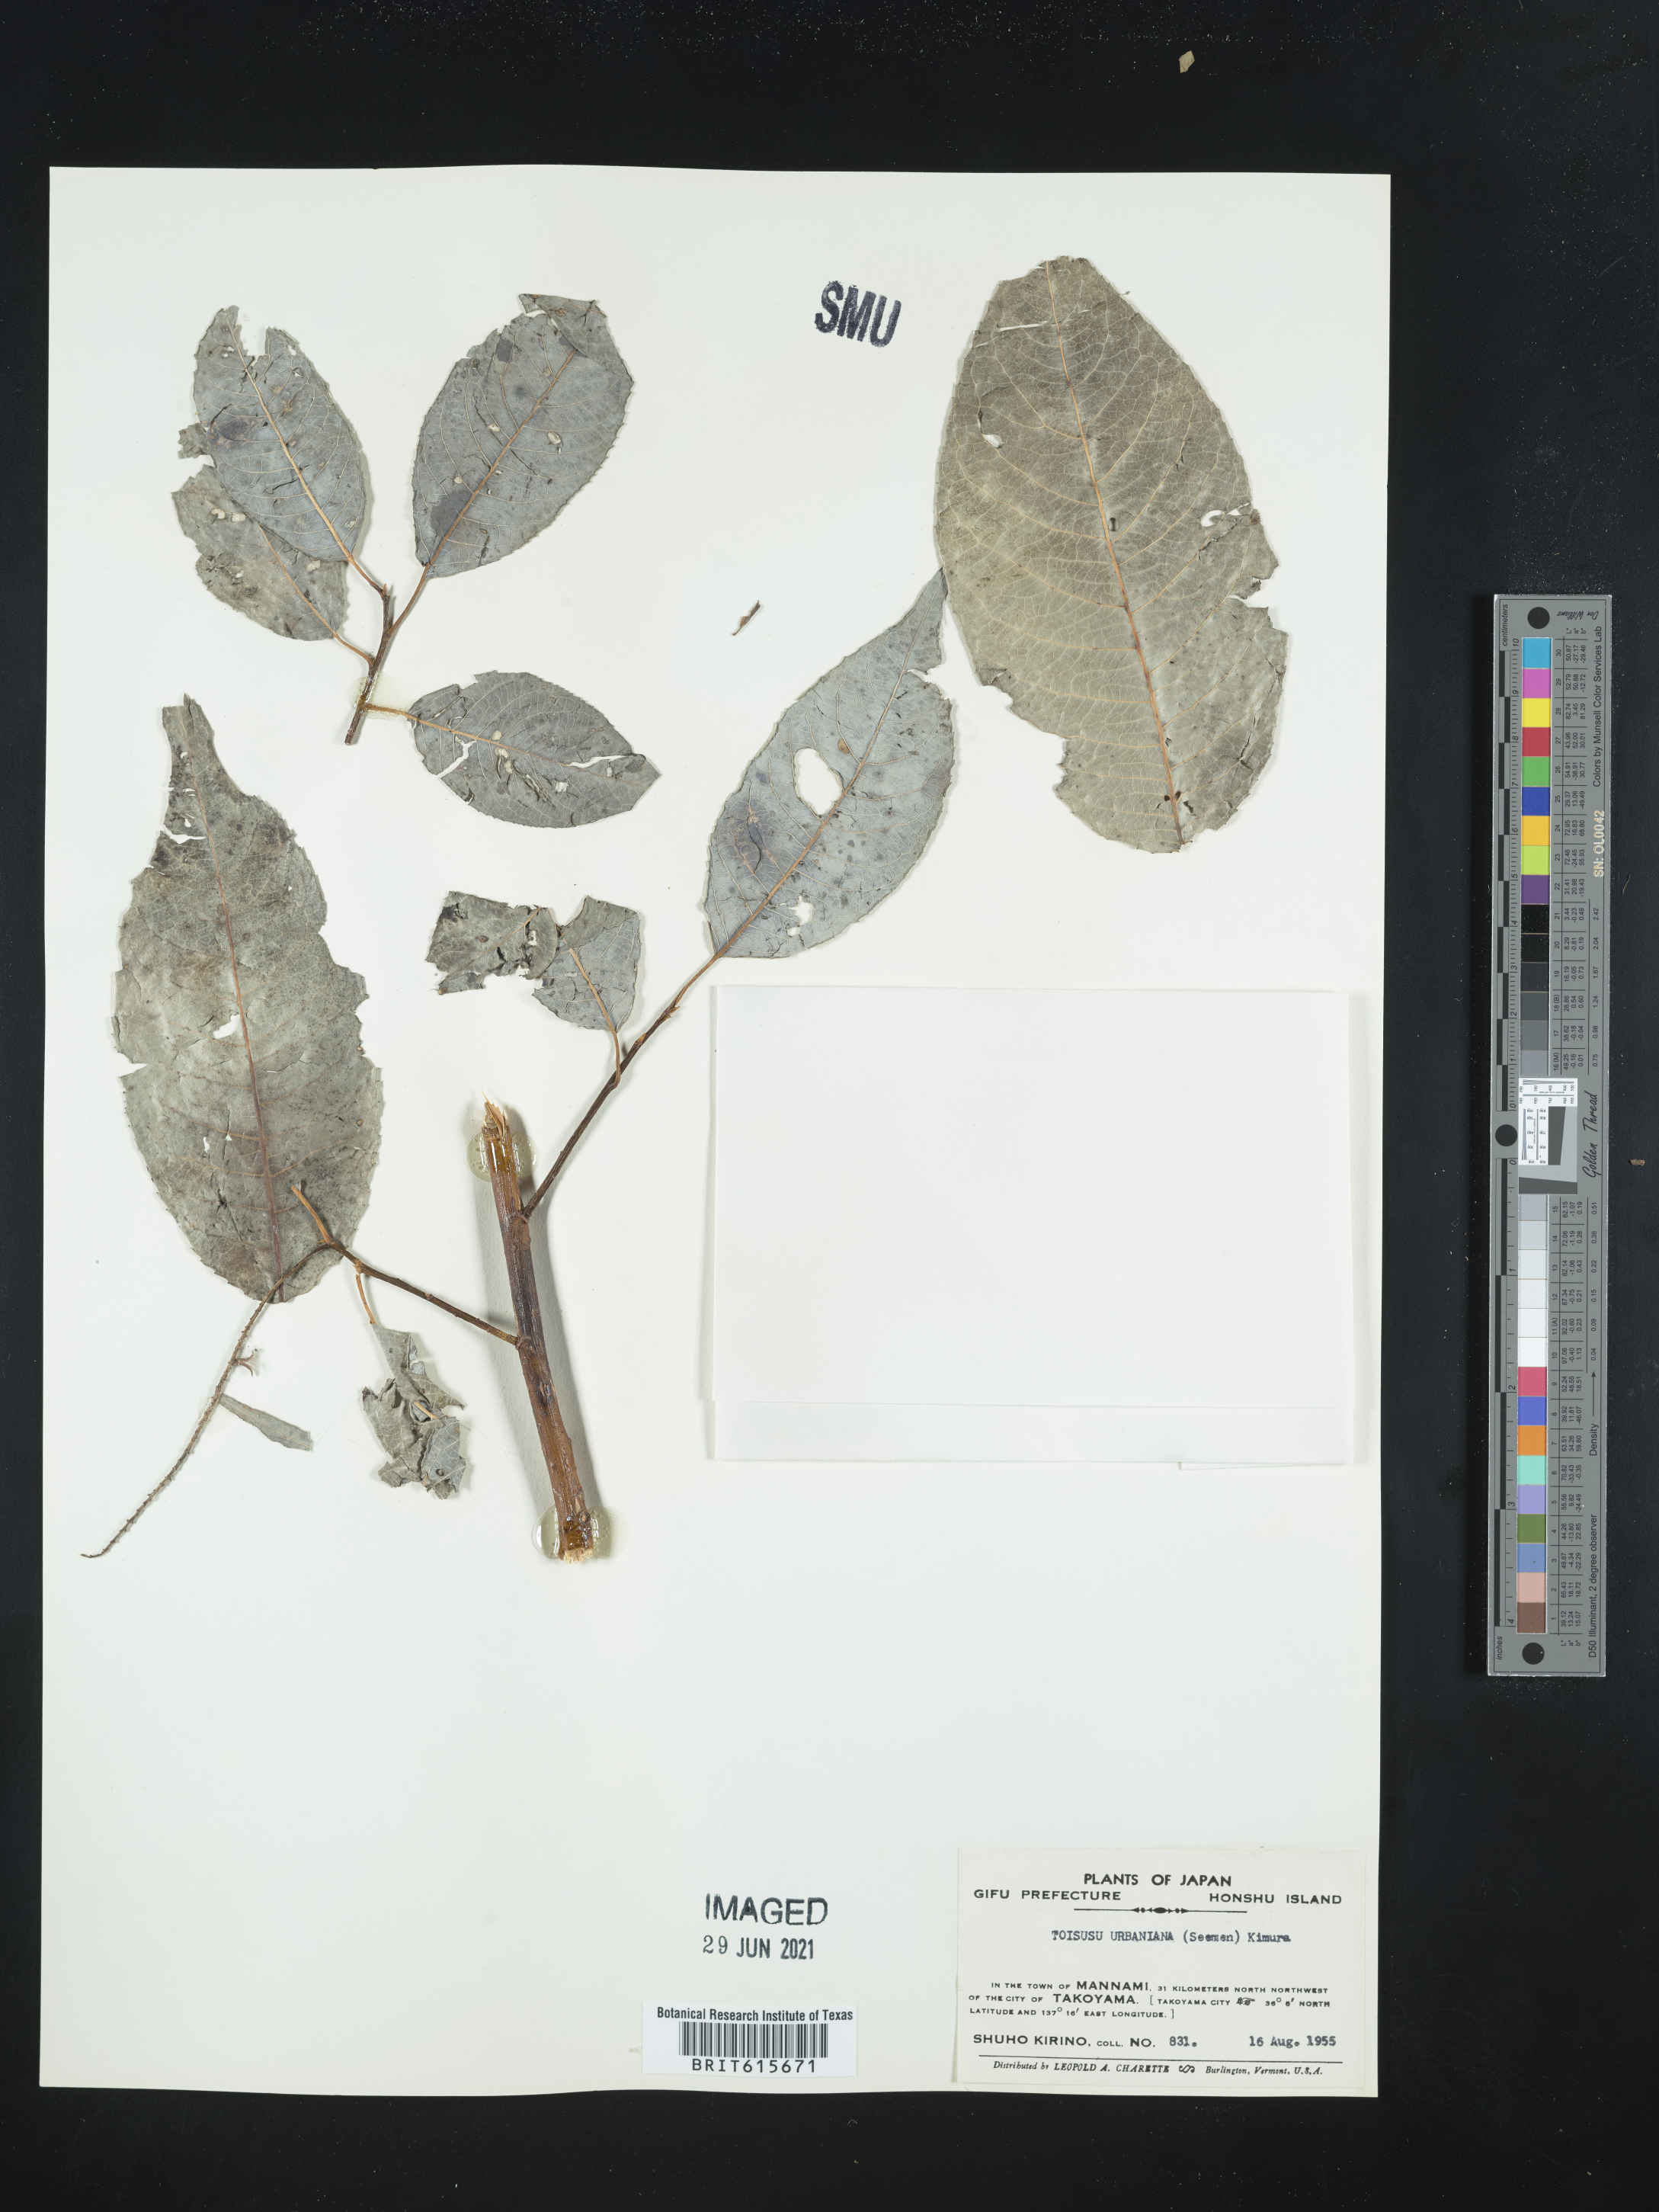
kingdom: Plantae
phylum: Tracheophyta
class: Magnoliopsida
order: Malpighiales
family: Salicaceae
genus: Chosenia
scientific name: Chosenia urbaniana
